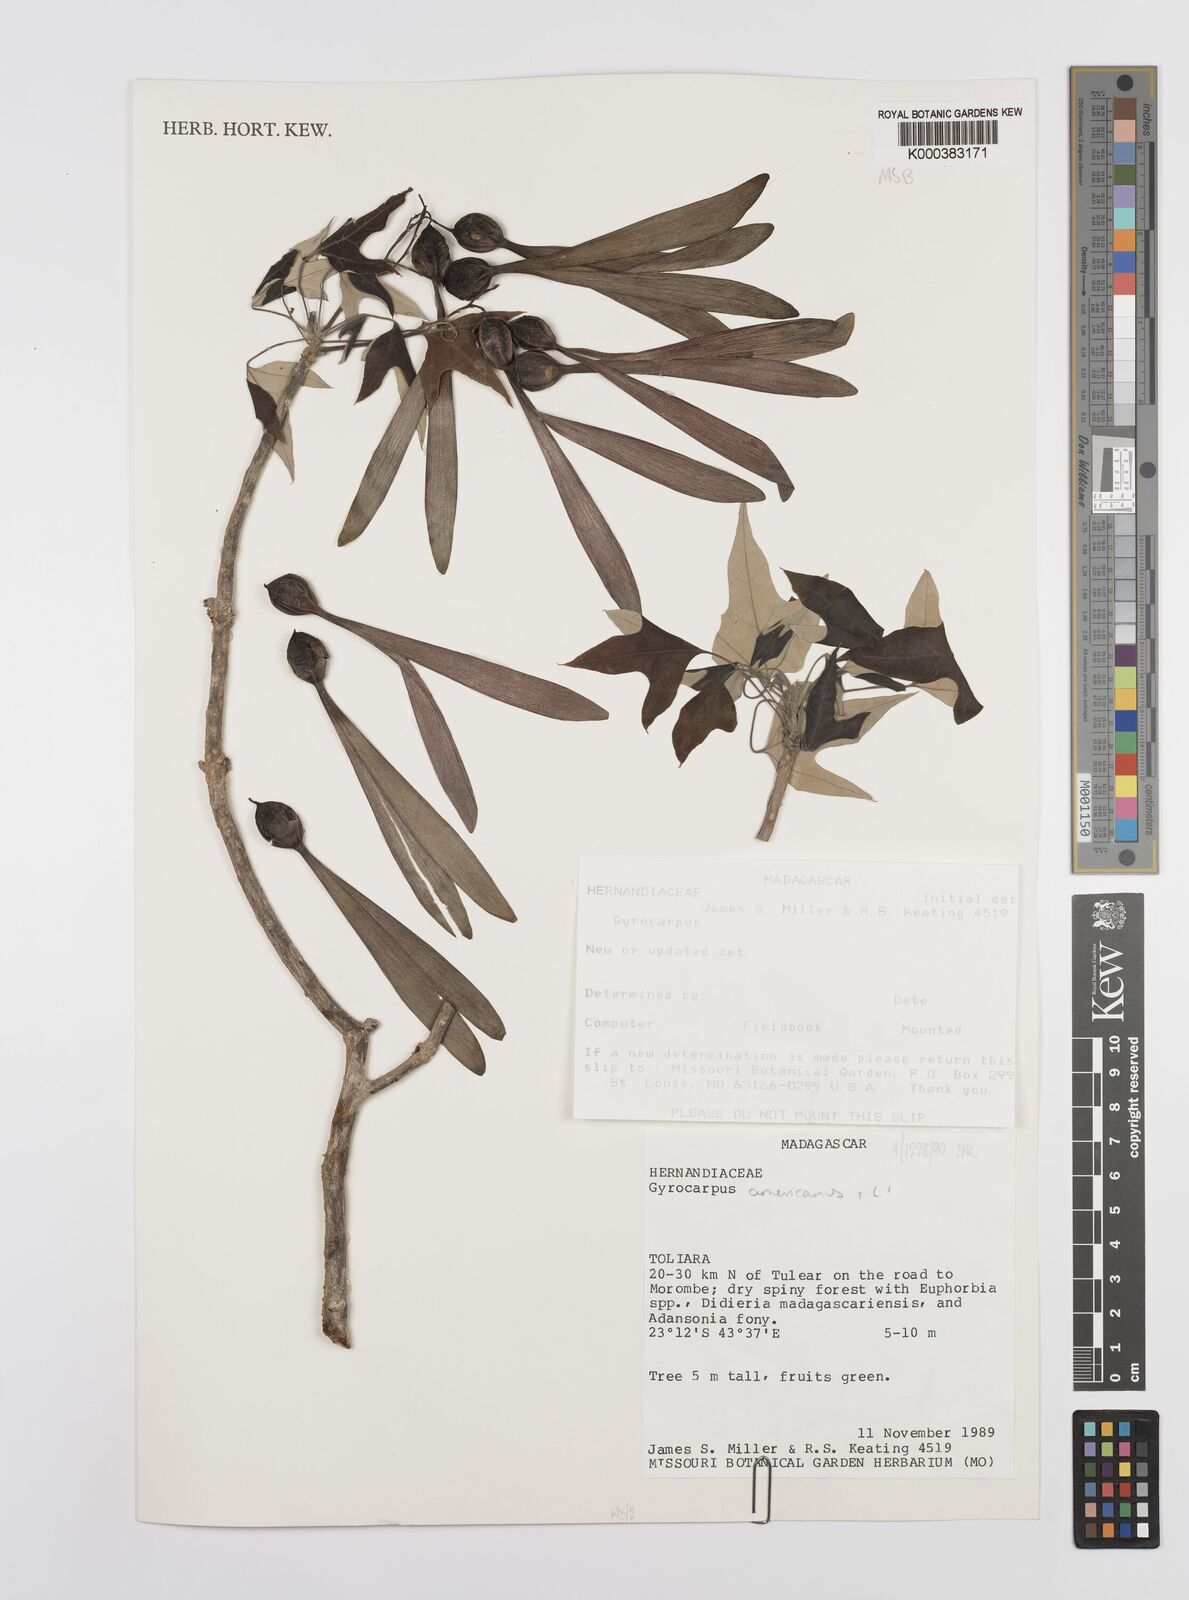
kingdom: Plantae
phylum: Tracheophyta
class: Magnoliopsida
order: Laurales
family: Hernandiaceae
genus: Gyrocarpus
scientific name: Gyrocarpus americanus
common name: Gyro damson
